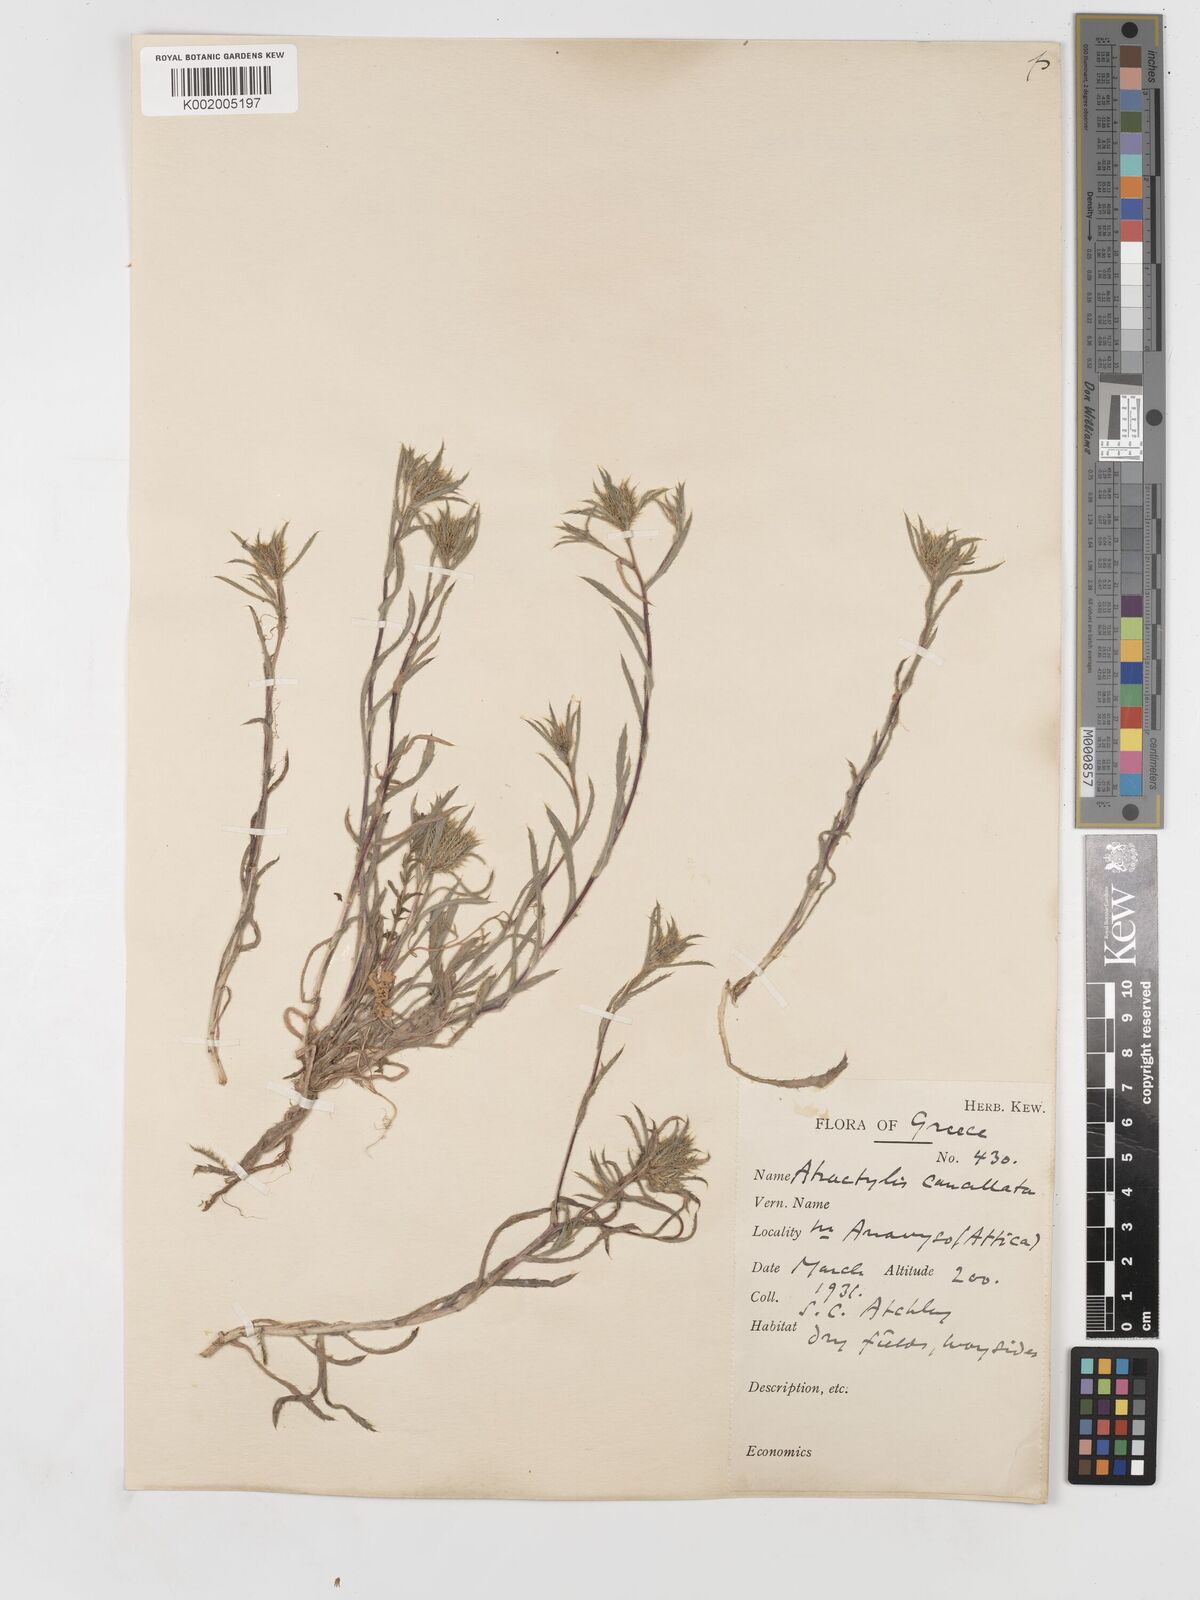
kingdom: Plantae
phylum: Tracheophyta
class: Magnoliopsida
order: Asterales
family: Asteraceae
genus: Atractylis
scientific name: Atractylis cancellata
